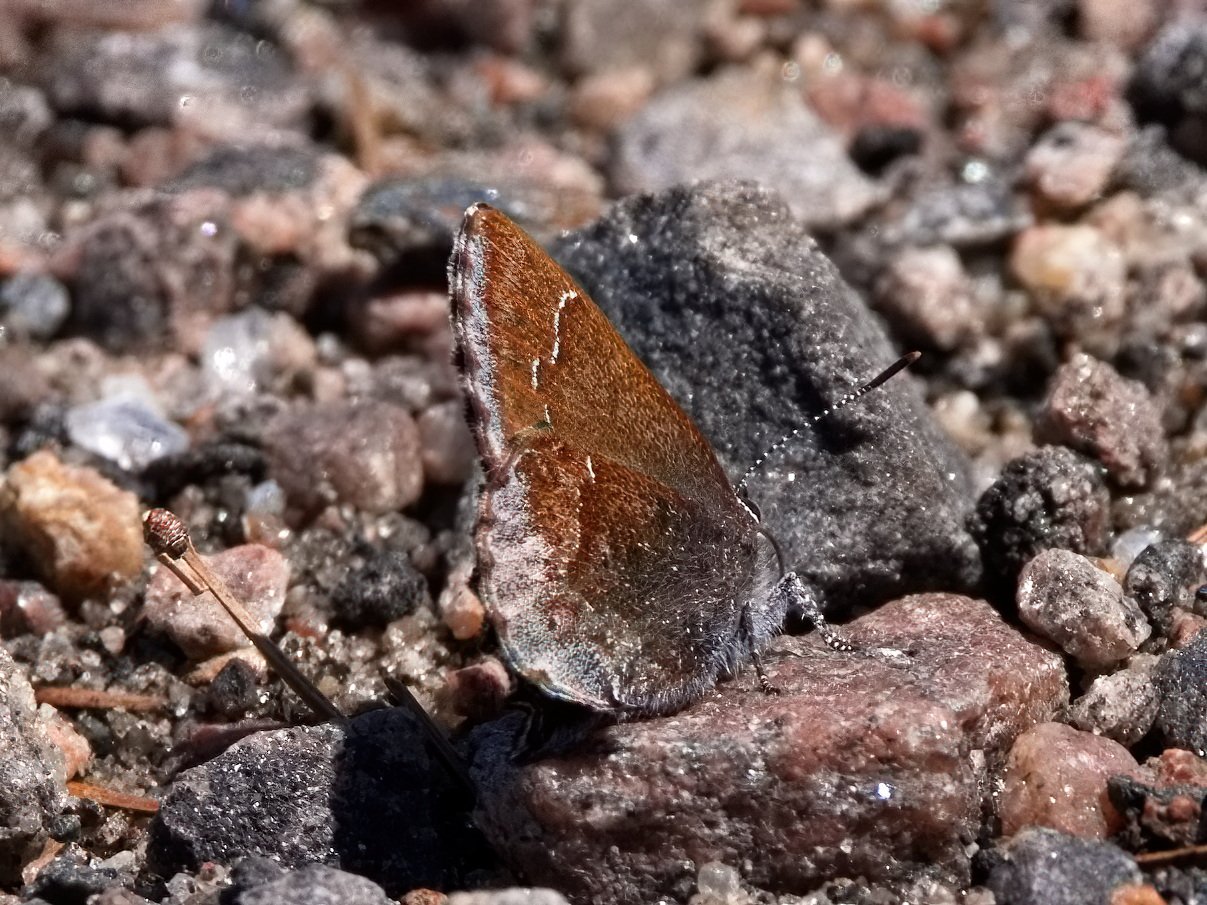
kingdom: Animalia
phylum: Arthropoda
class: Insecta
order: Lepidoptera
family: Lycaenidae
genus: Callophrys
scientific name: Callophrys polios
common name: Hoary Elfin
